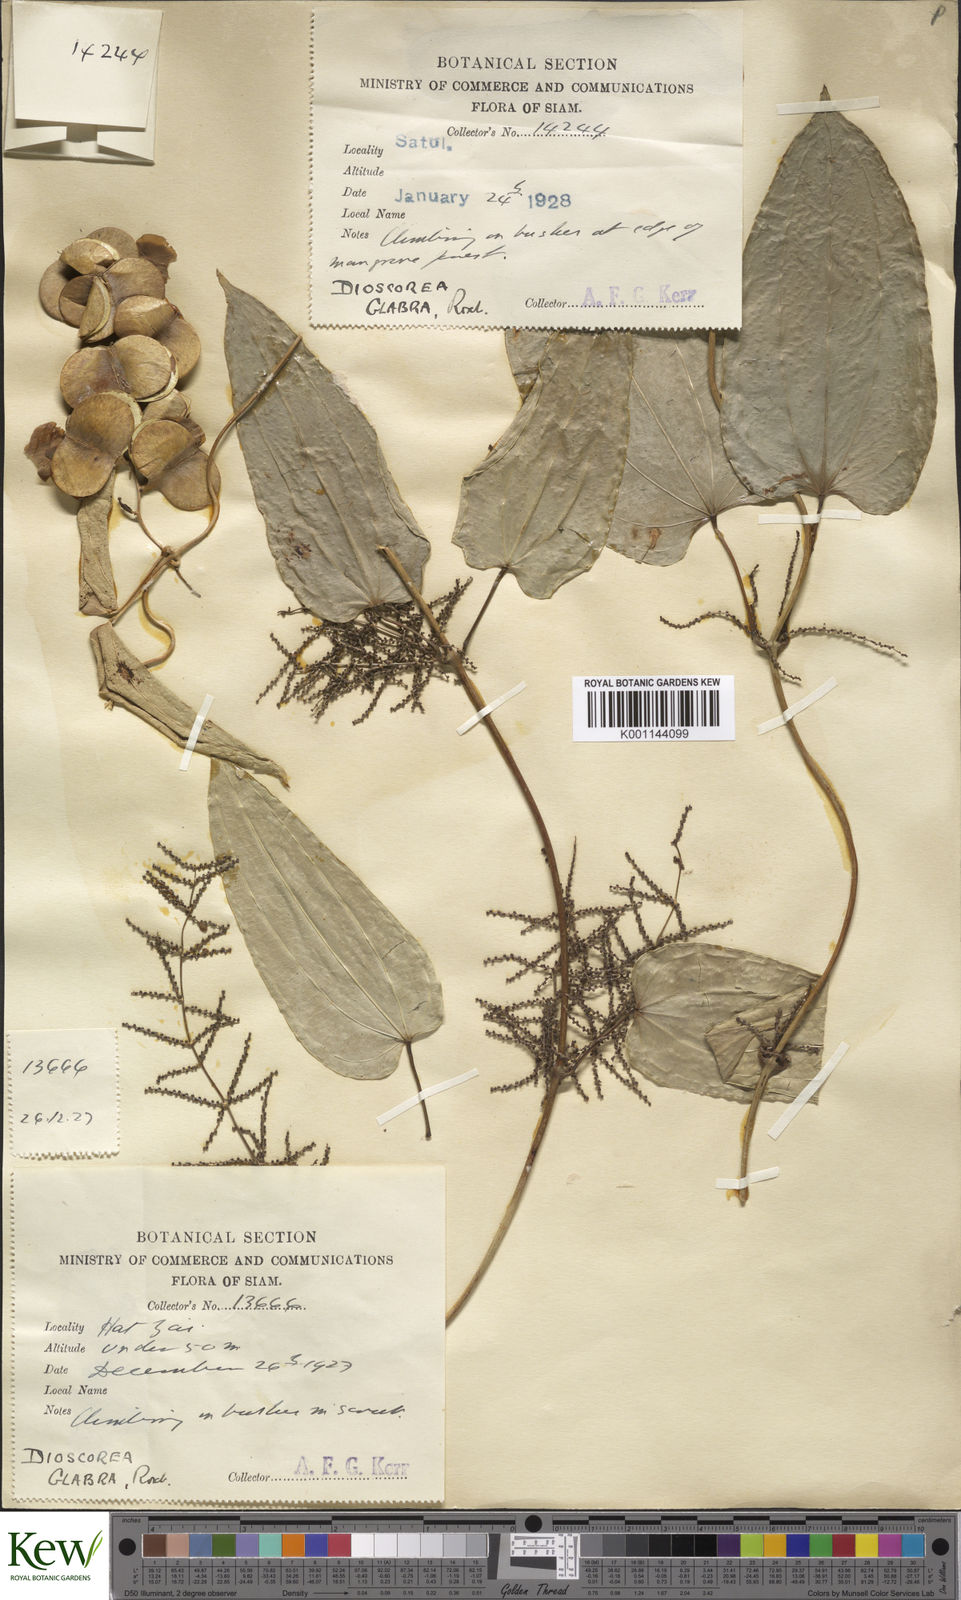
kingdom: Plantae
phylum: Tracheophyta
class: Liliopsida
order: Dioscoreales
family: Dioscoreaceae
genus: Dioscorea
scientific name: Dioscorea glabra
